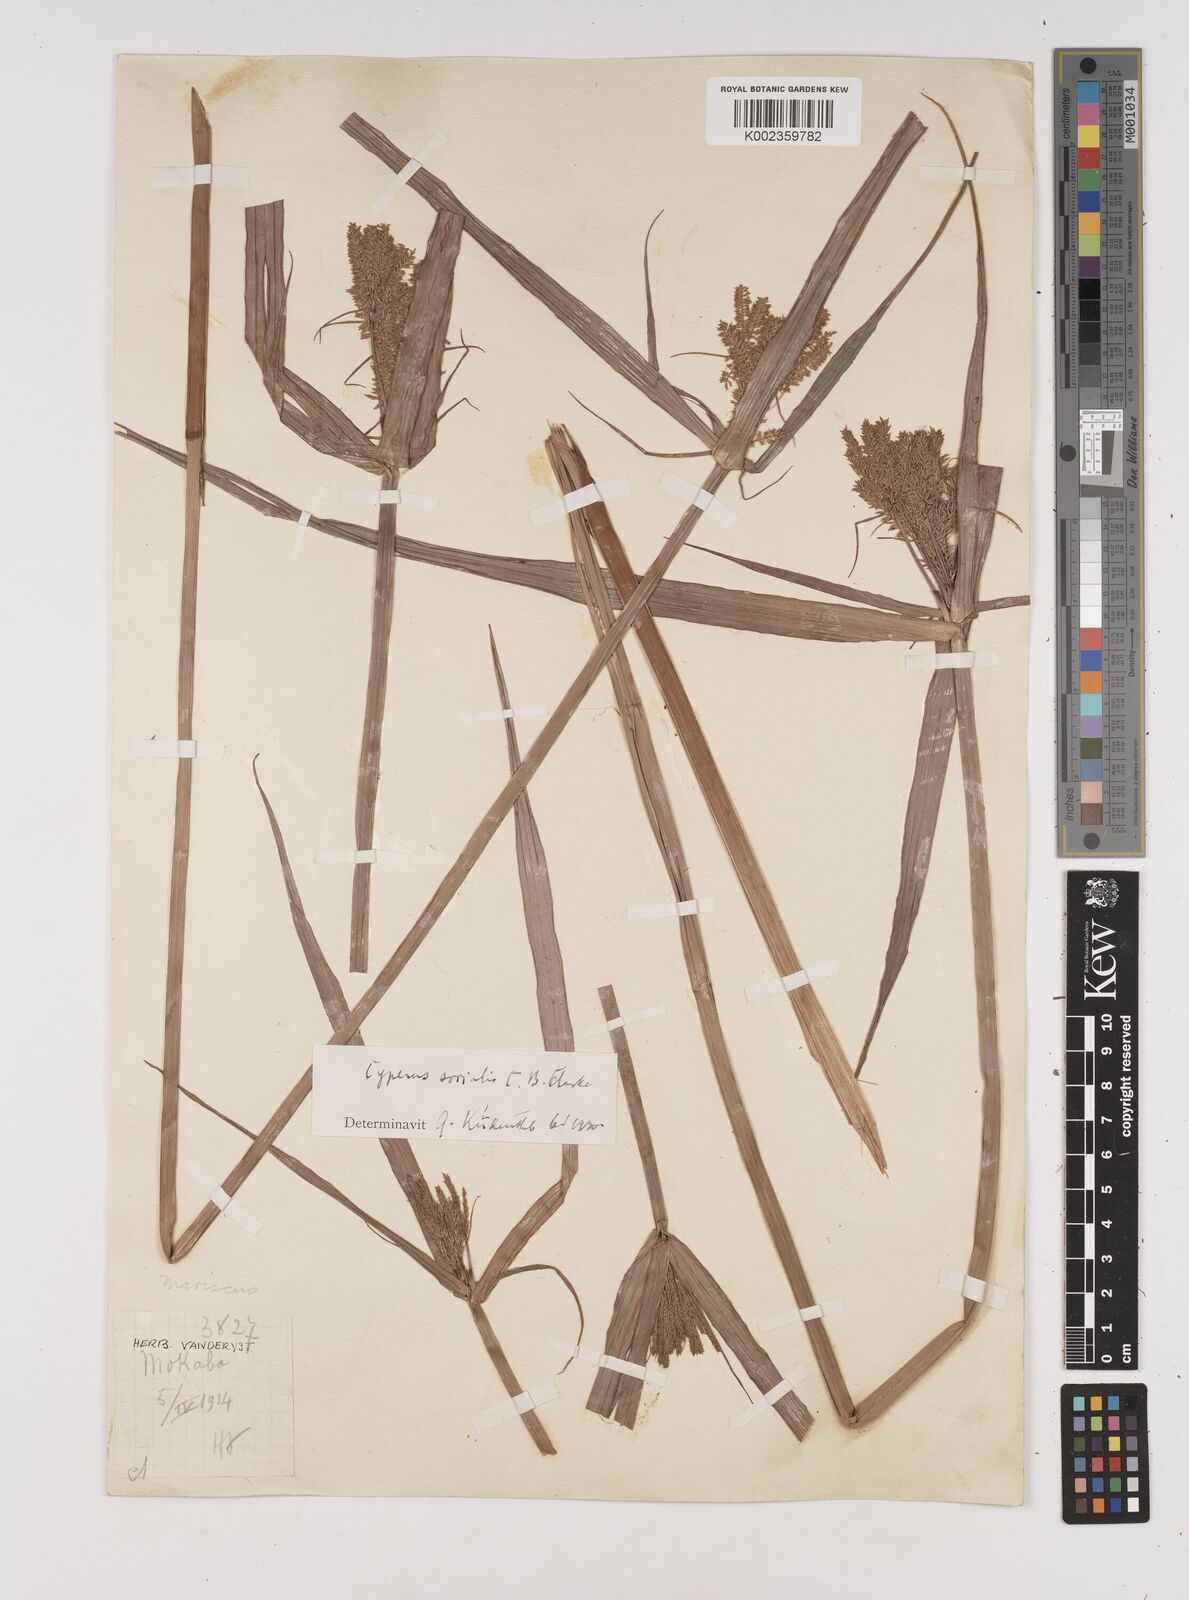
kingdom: Plantae
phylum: Tracheophyta
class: Liliopsida
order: Poales
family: Cyperaceae
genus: Cyperus
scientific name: Cyperus pseudopilosus
